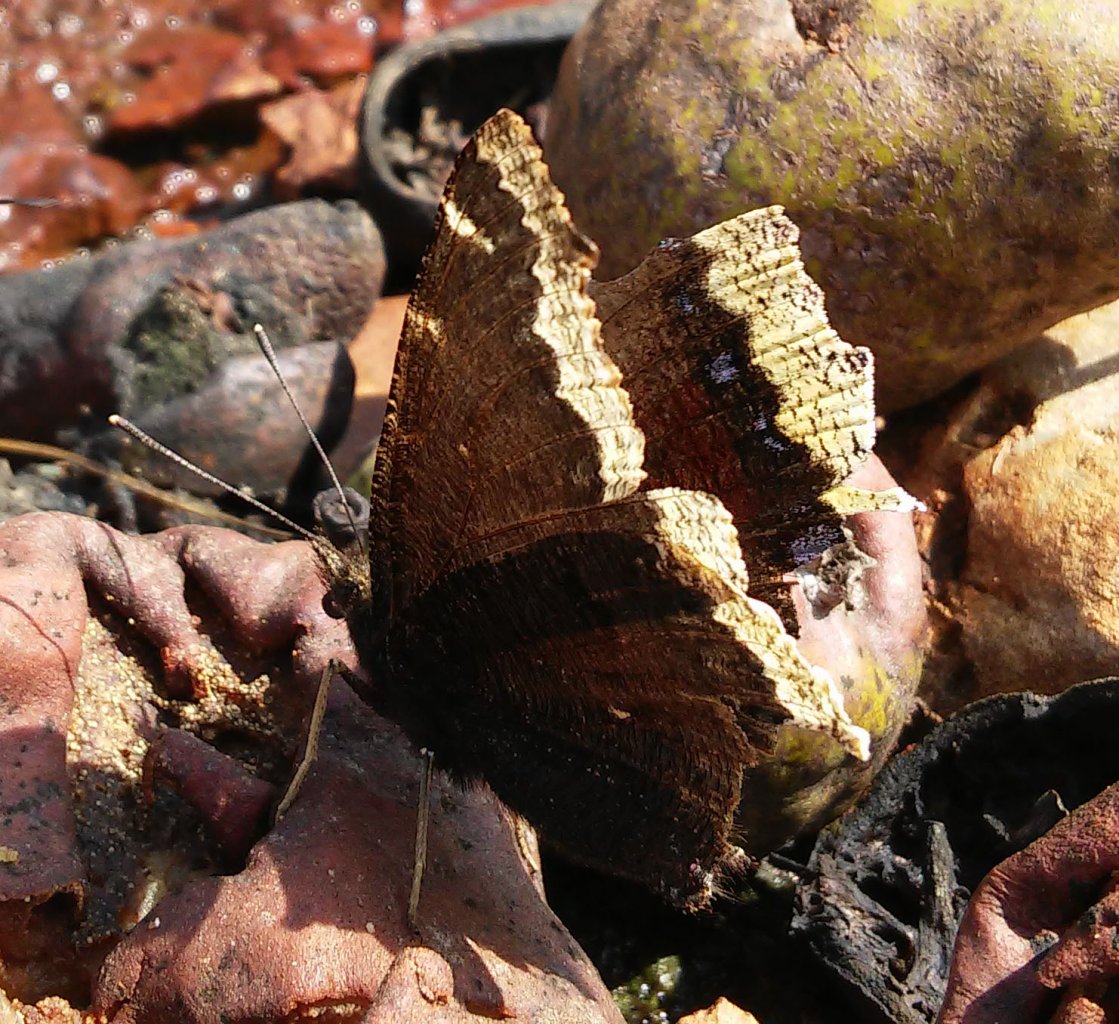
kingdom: Animalia
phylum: Arthropoda
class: Insecta
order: Lepidoptera
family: Nymphalidae
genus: Nymphalis
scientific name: Nymphalis antiopa
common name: Mourning Cloak
